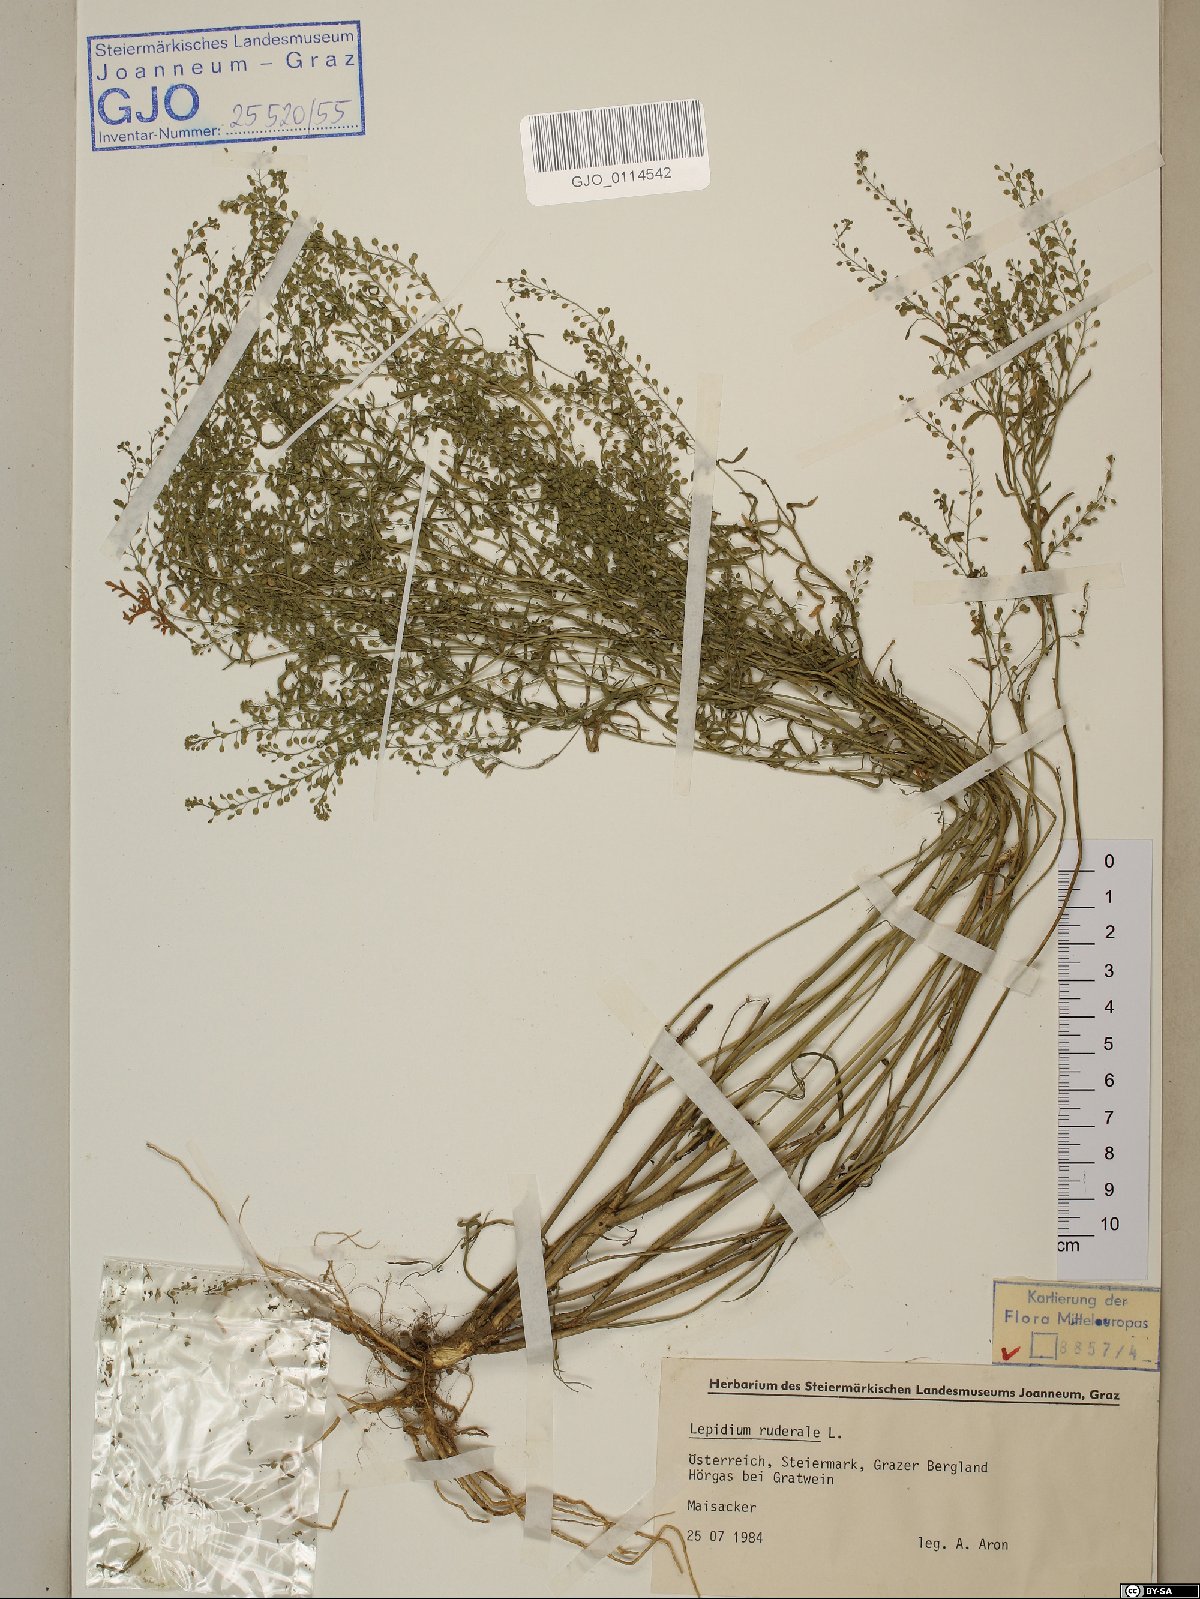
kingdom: Plantae
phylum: Tracheophyta
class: Magnoliopsida
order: Brassicales
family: Brassicaceae
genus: Lepidium
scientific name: Lepidium ruderale
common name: Narrow-leaved pepperwort
